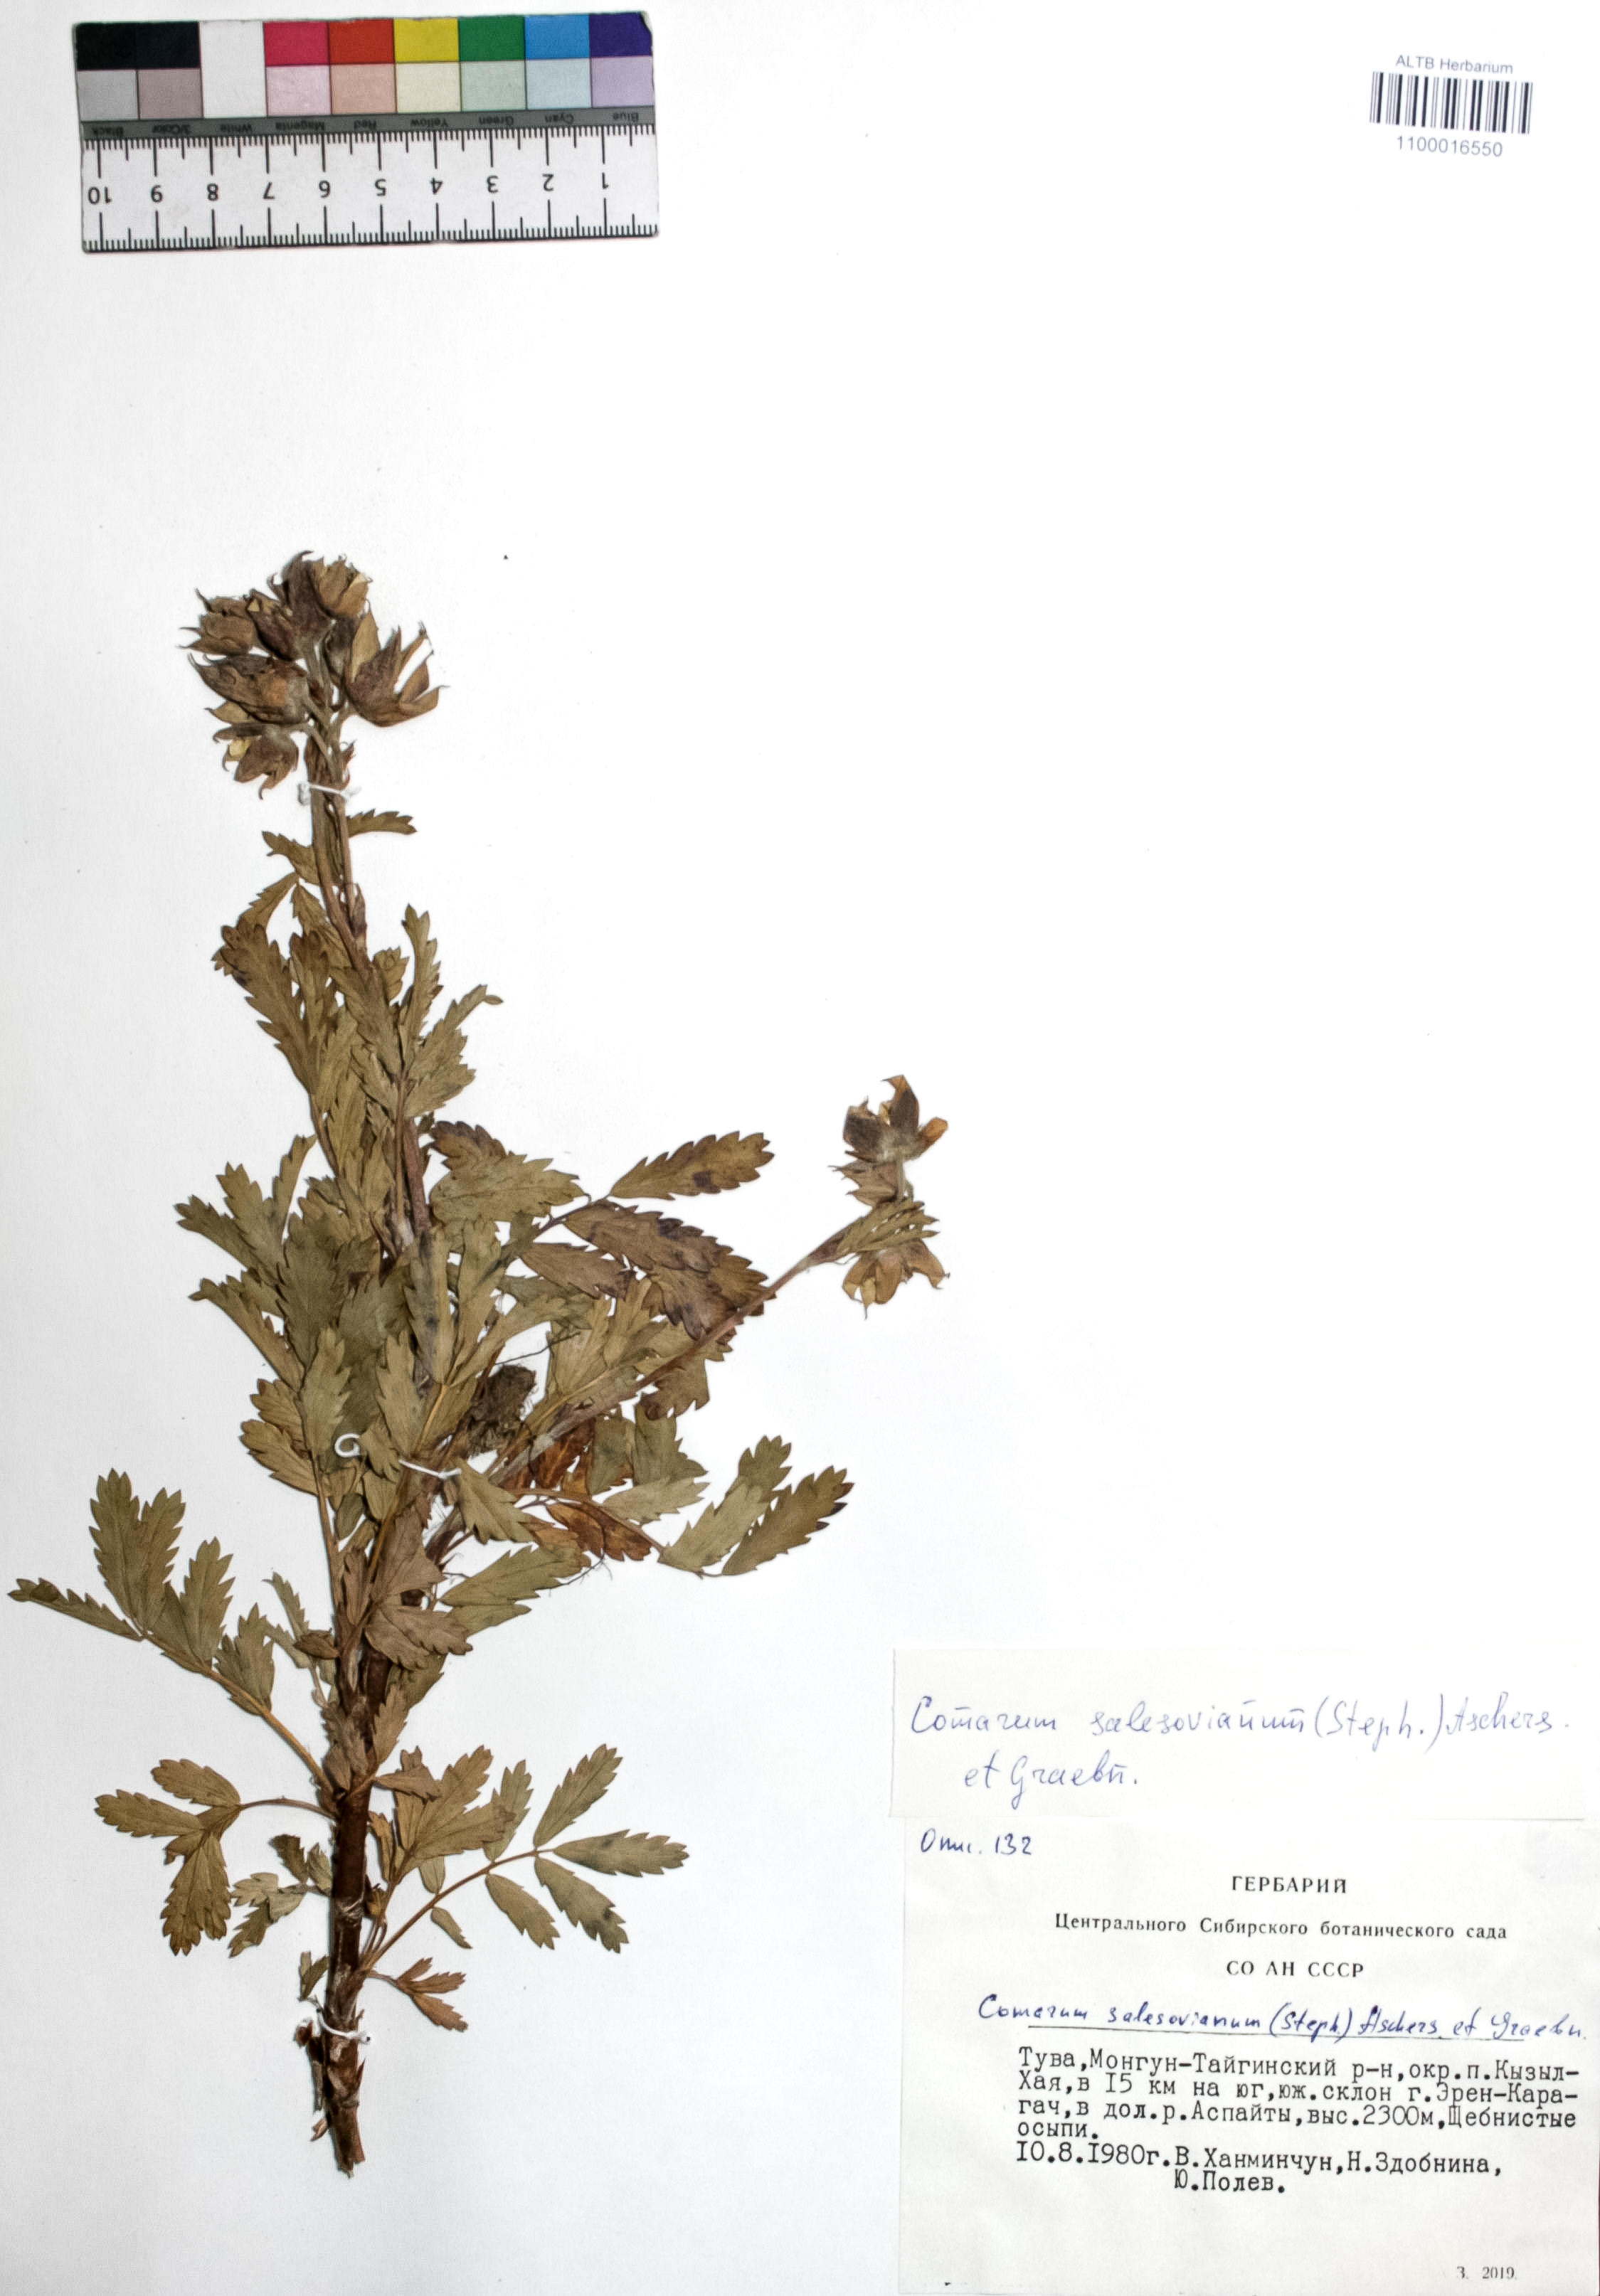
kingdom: Plantae
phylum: Tracheophyta
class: Magnoliopsida
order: Rosales
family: Rosaceae
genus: Farinopsis
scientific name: Farinopsis salesoviana
